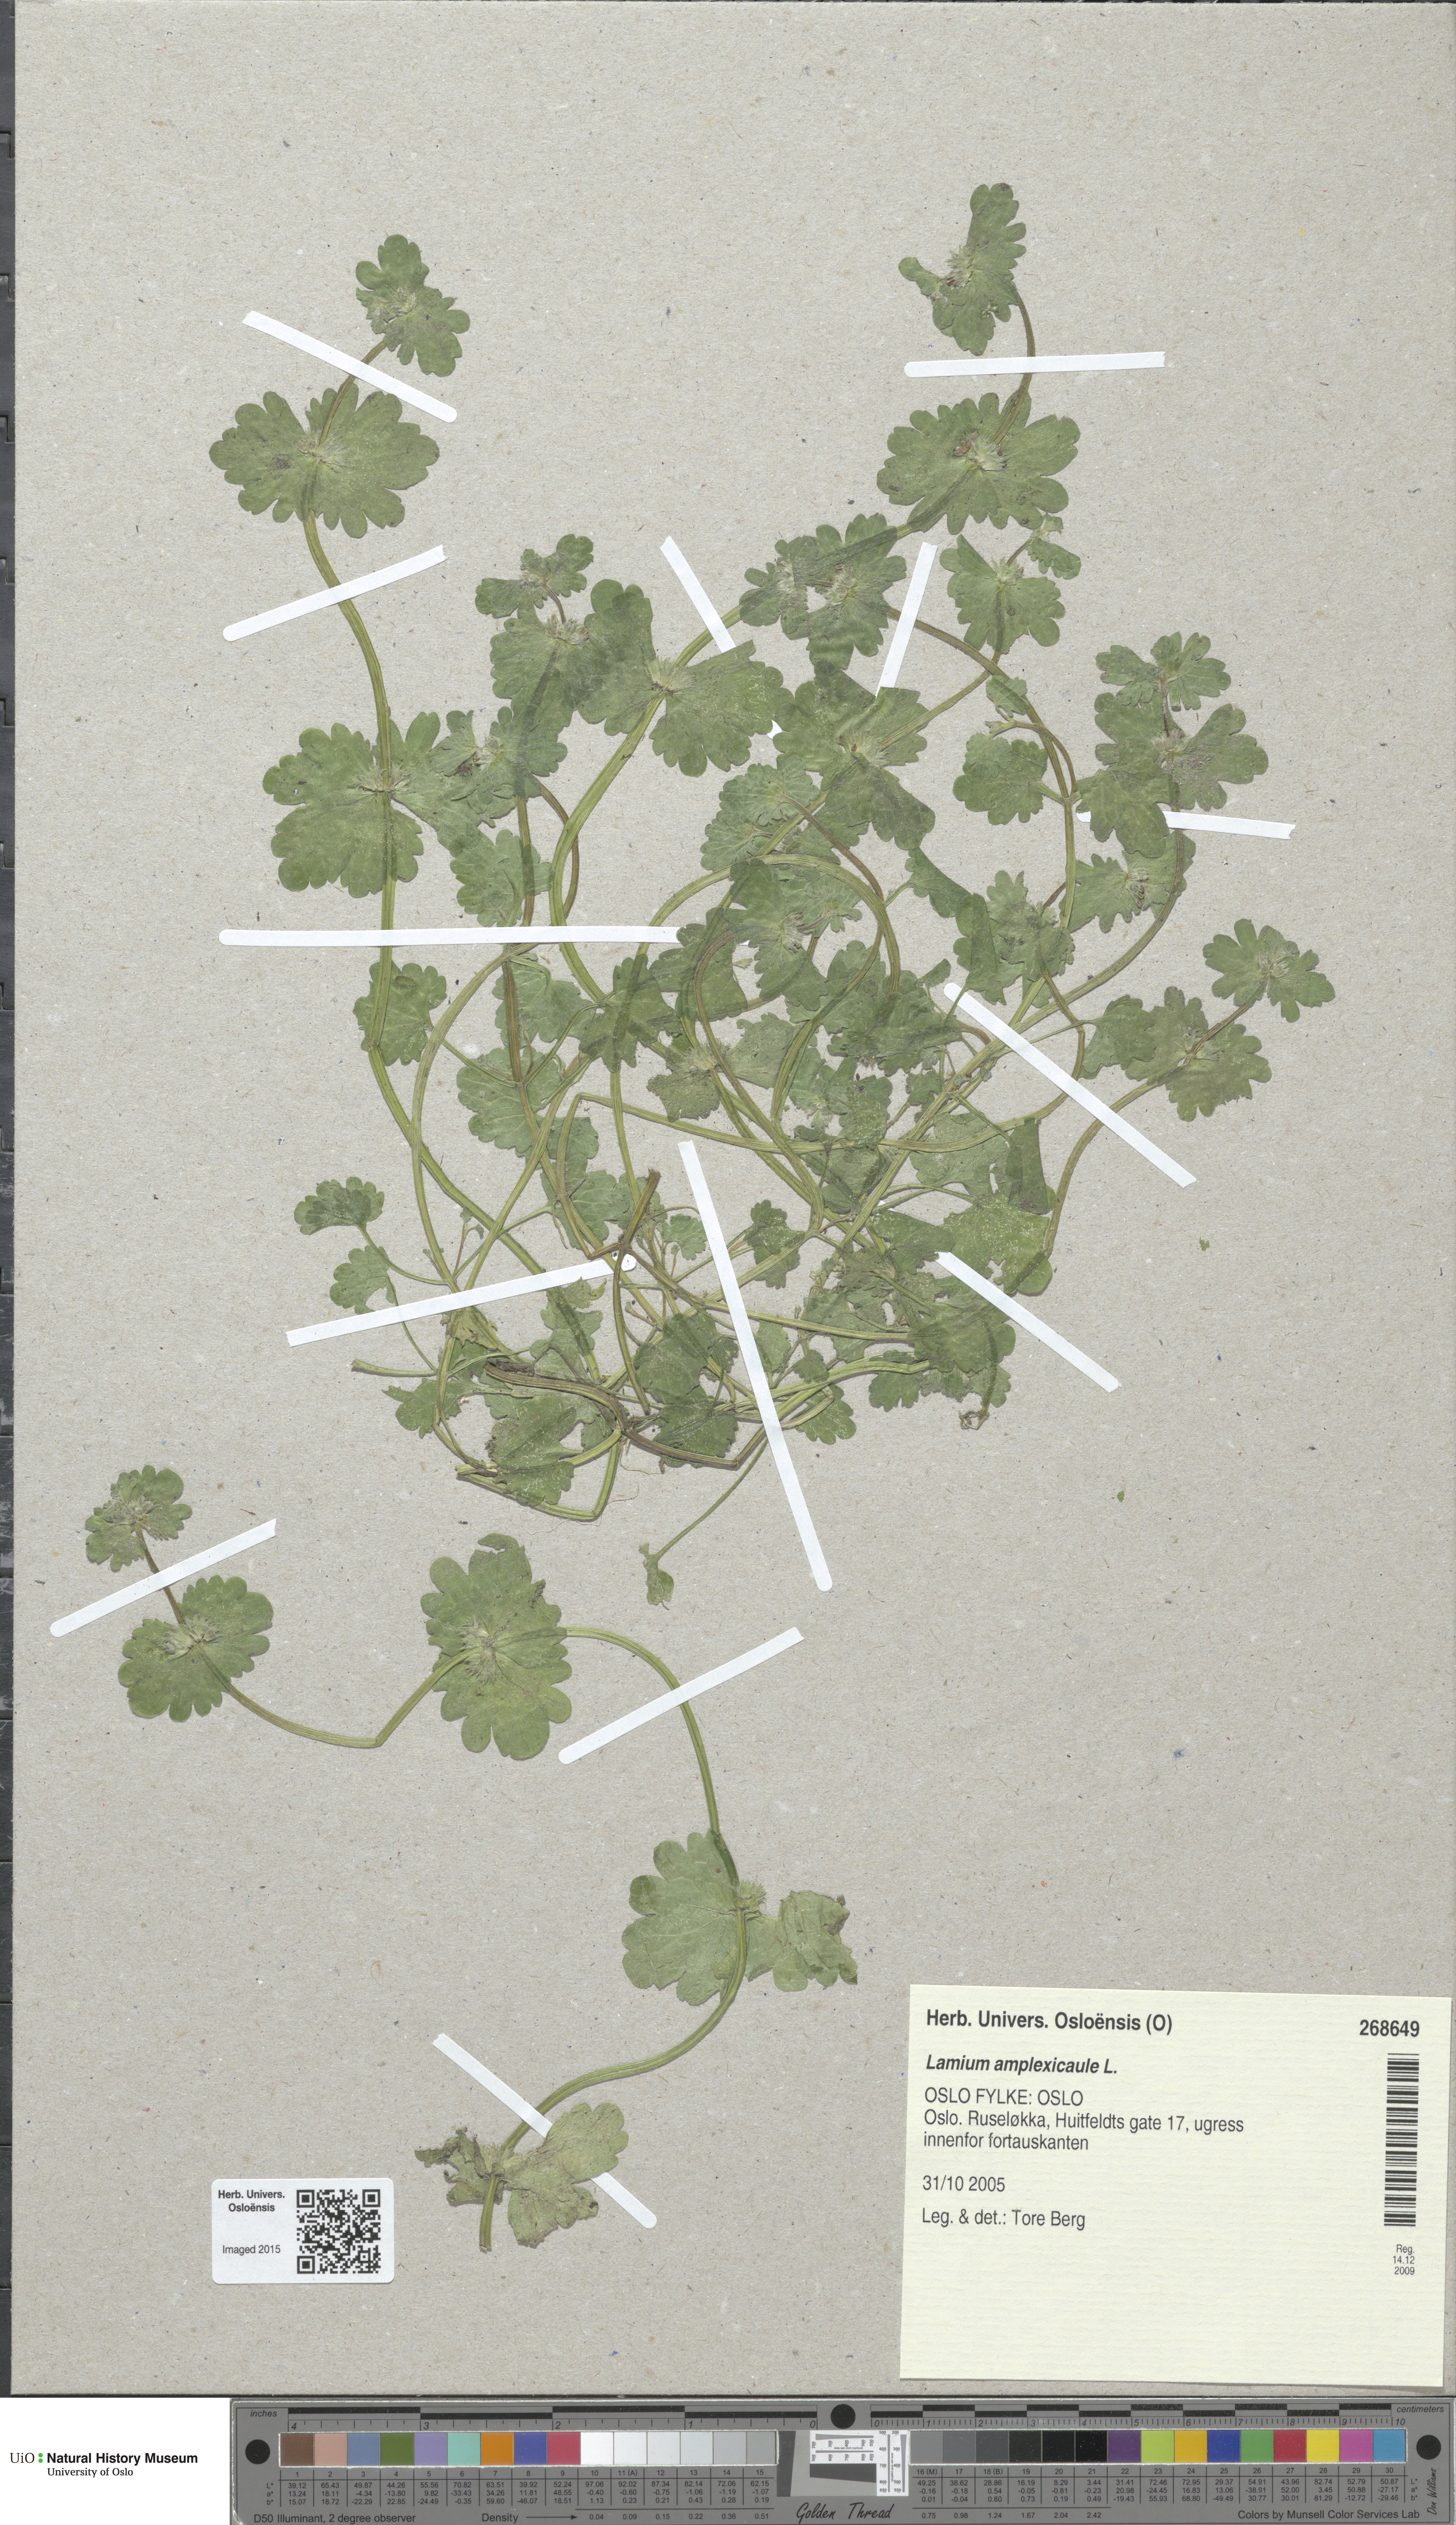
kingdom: Plantae
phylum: Tracheophyta
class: Magnoliopsida
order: Lamiales
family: Lamiaceae
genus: Lamium
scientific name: Lamium amplexicaule
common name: Henbit dead-nettle
